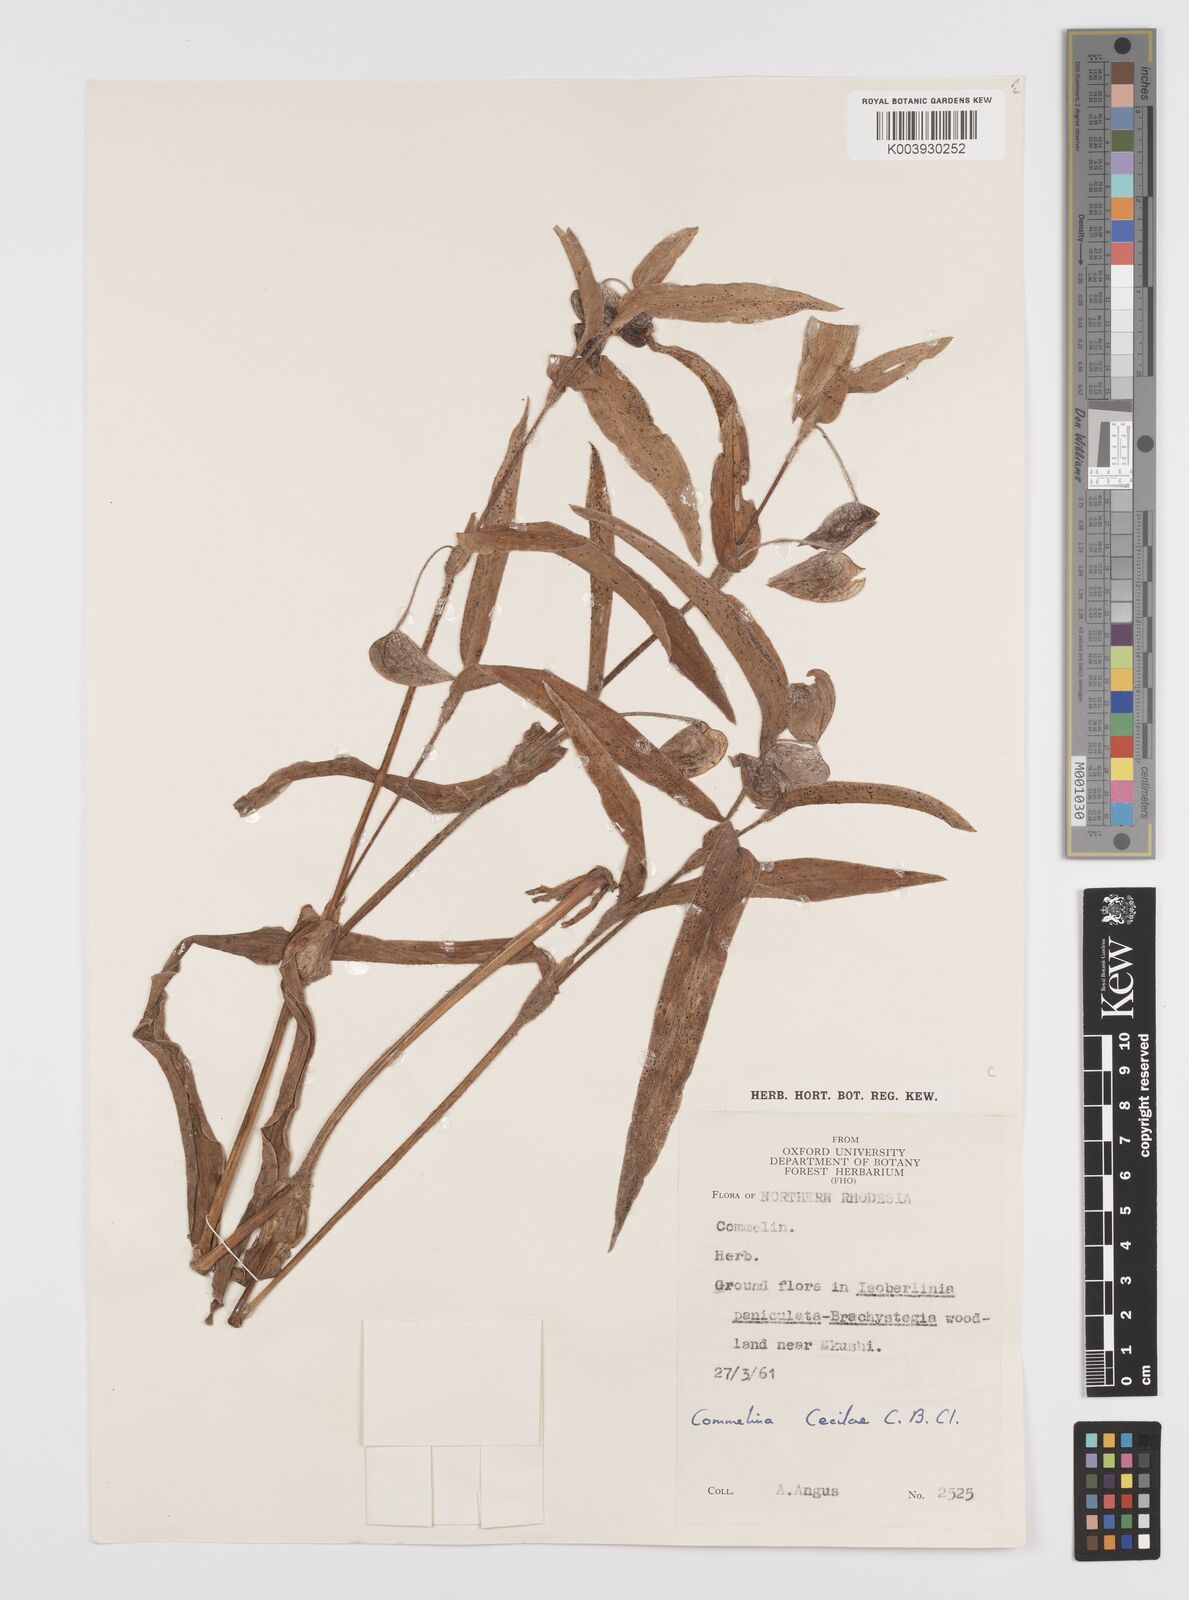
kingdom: Plantae
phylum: Tracheophyta
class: Liliopsida
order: Commelinales
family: Commelinaceae
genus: Commelina
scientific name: Commelina schweinfurthii
